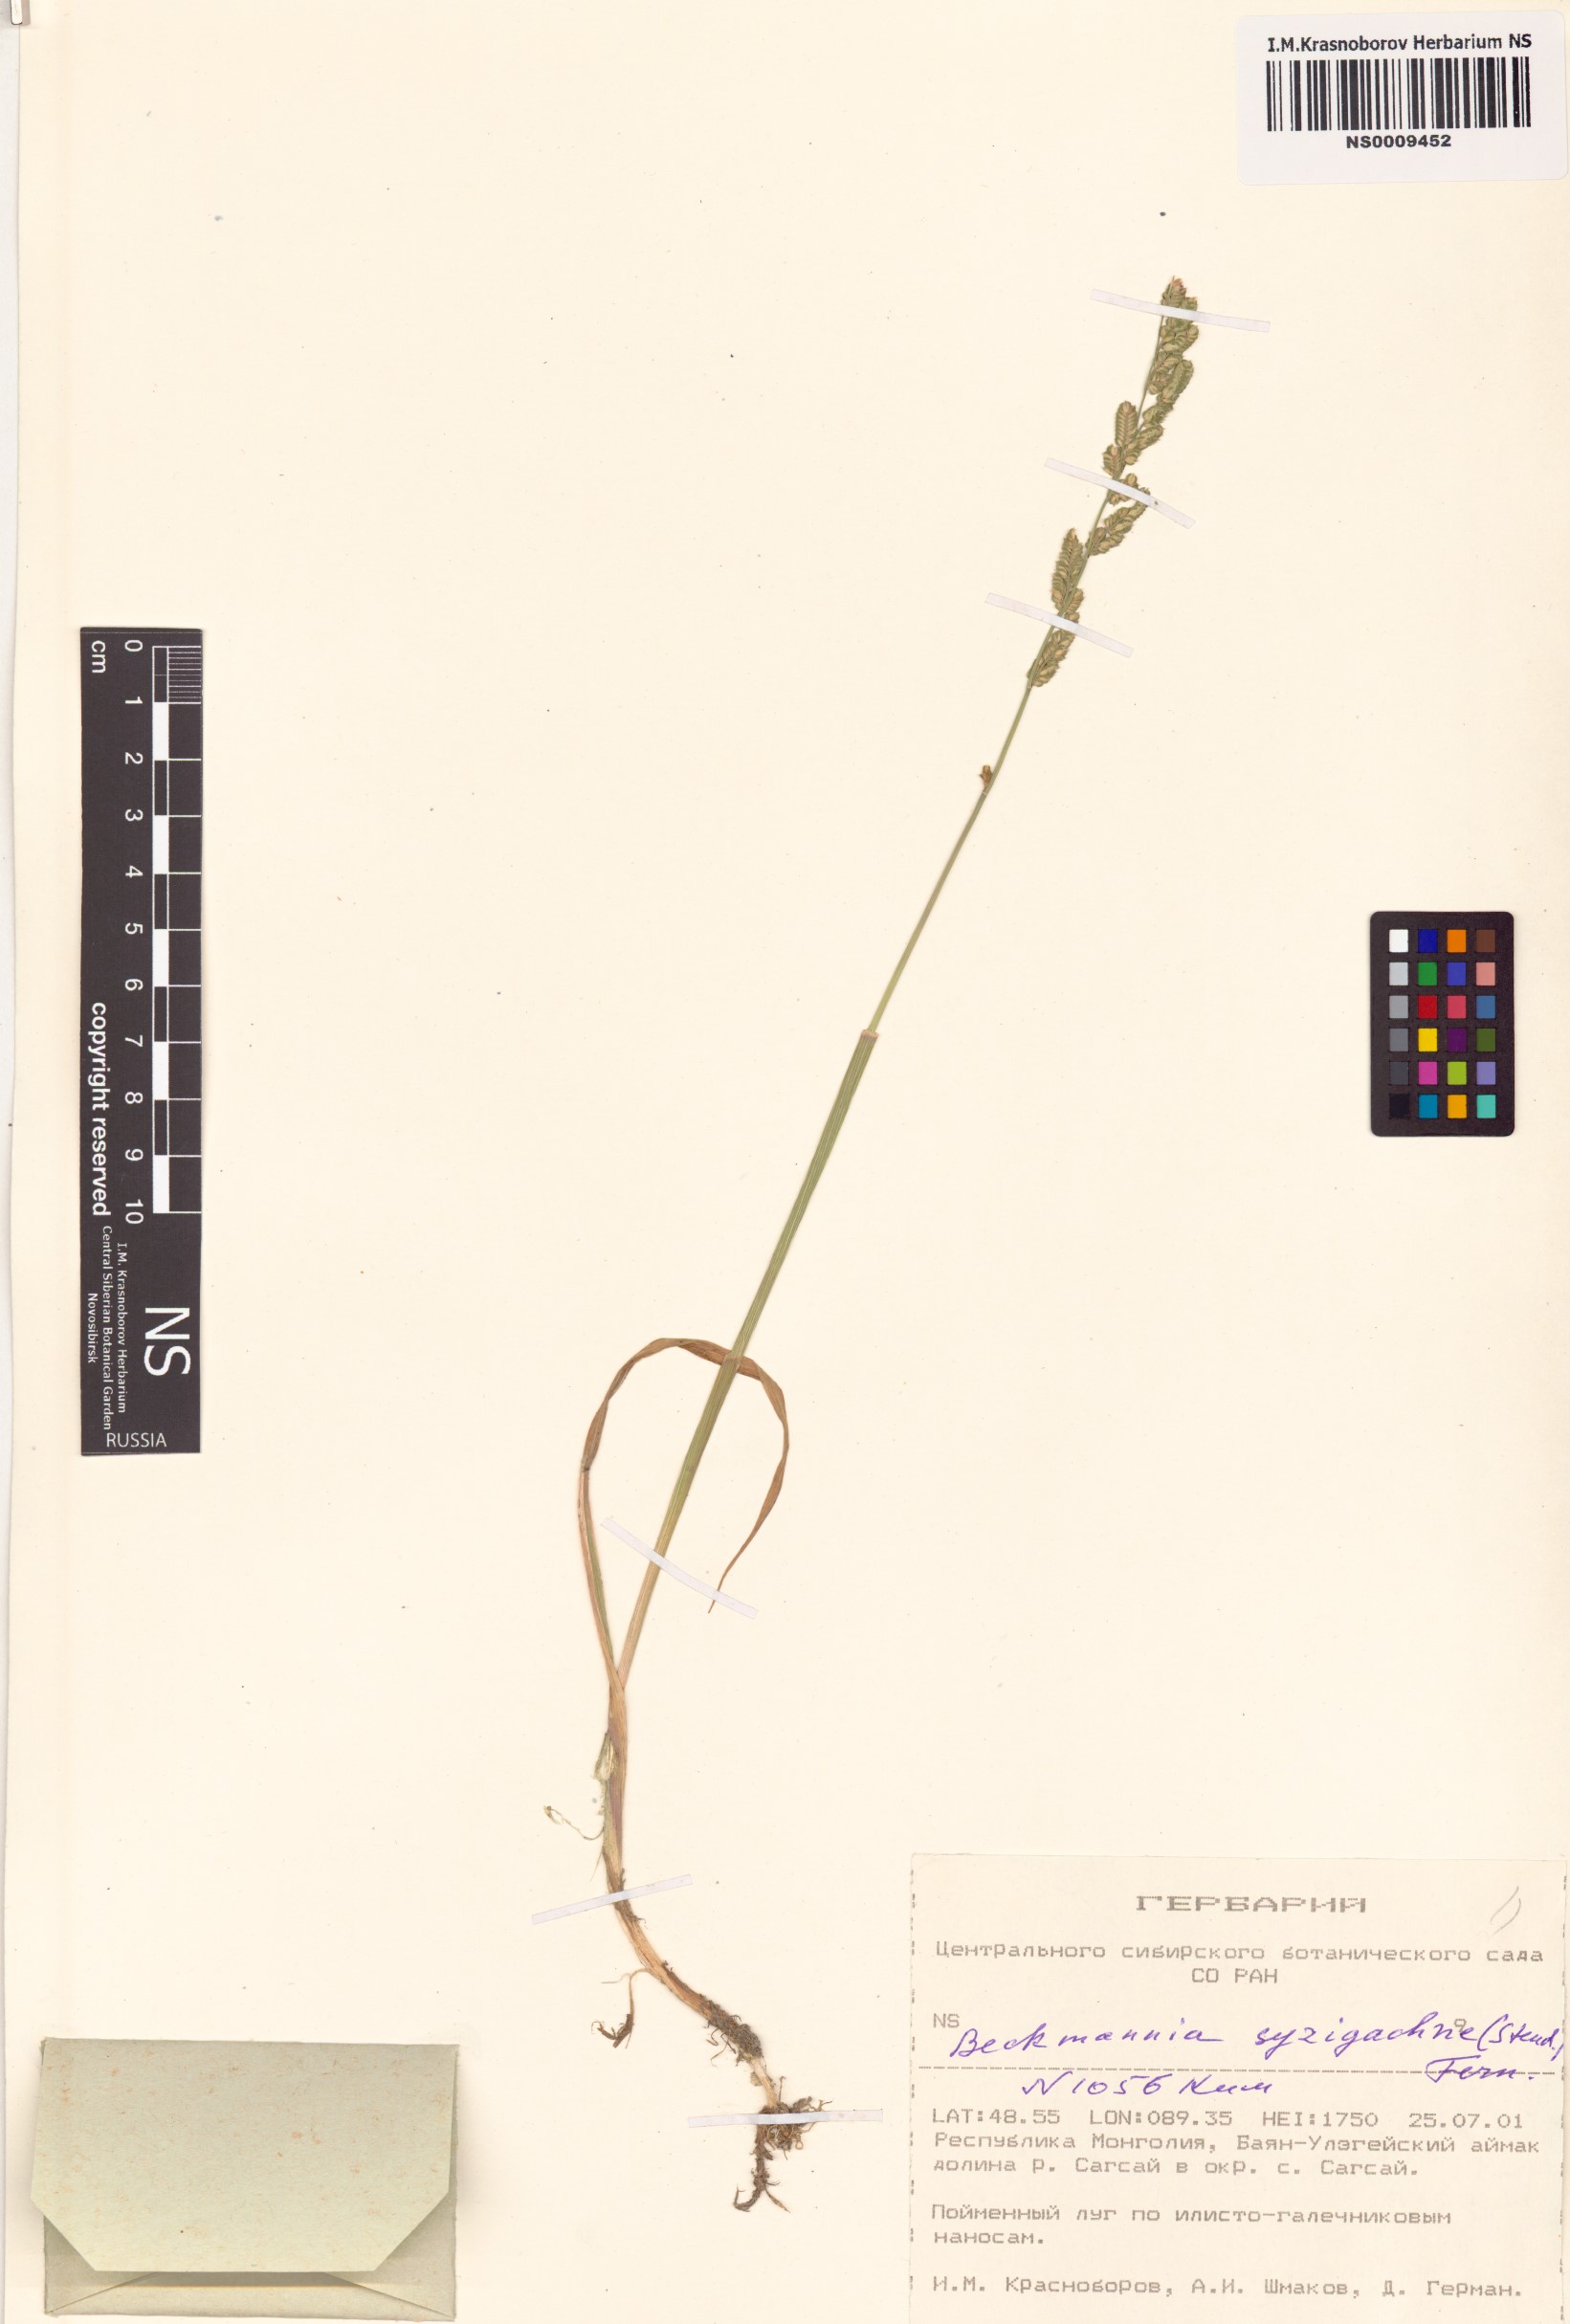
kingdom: Plantae
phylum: Tracheophyta
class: Liliopsida
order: Poales
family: Poaceae
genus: Beckmannia
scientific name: Beckmannia syzigachne
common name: American slough-grass
